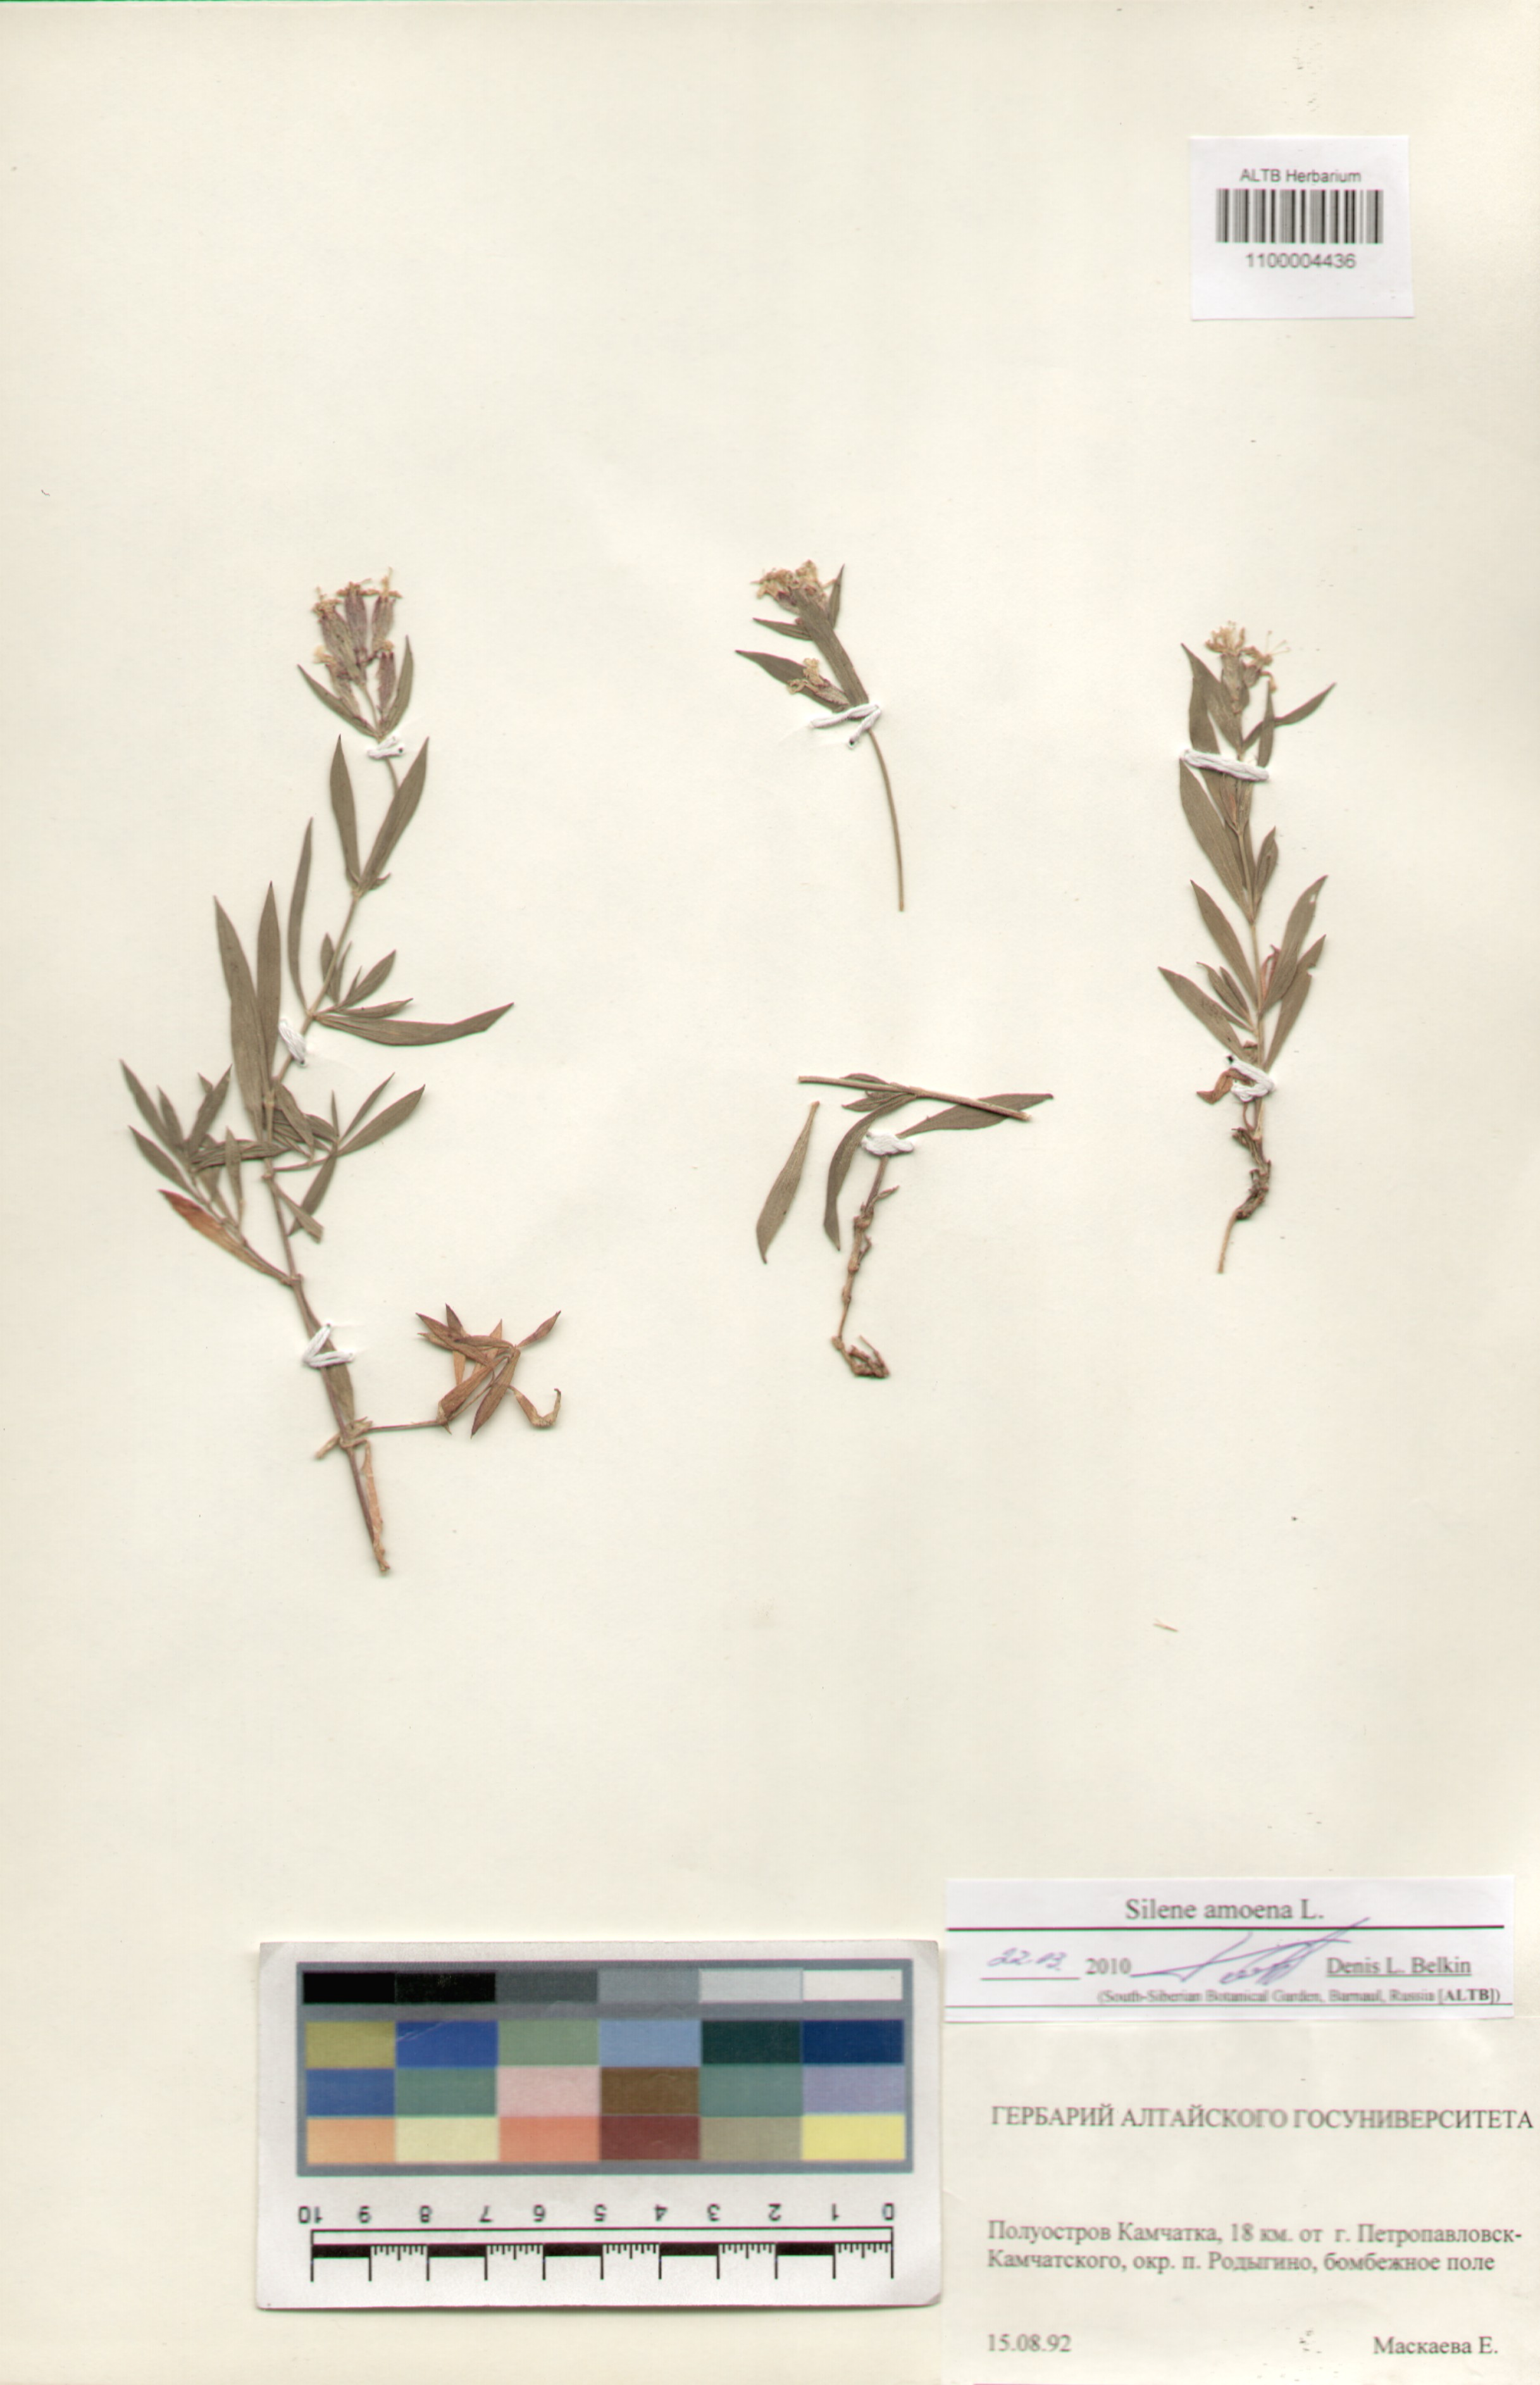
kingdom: Plantae
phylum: Tracheophyta
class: Magnoliopsida
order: Caryophyllales
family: Caryophyllaceae
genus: Silene
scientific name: Silene amoena
